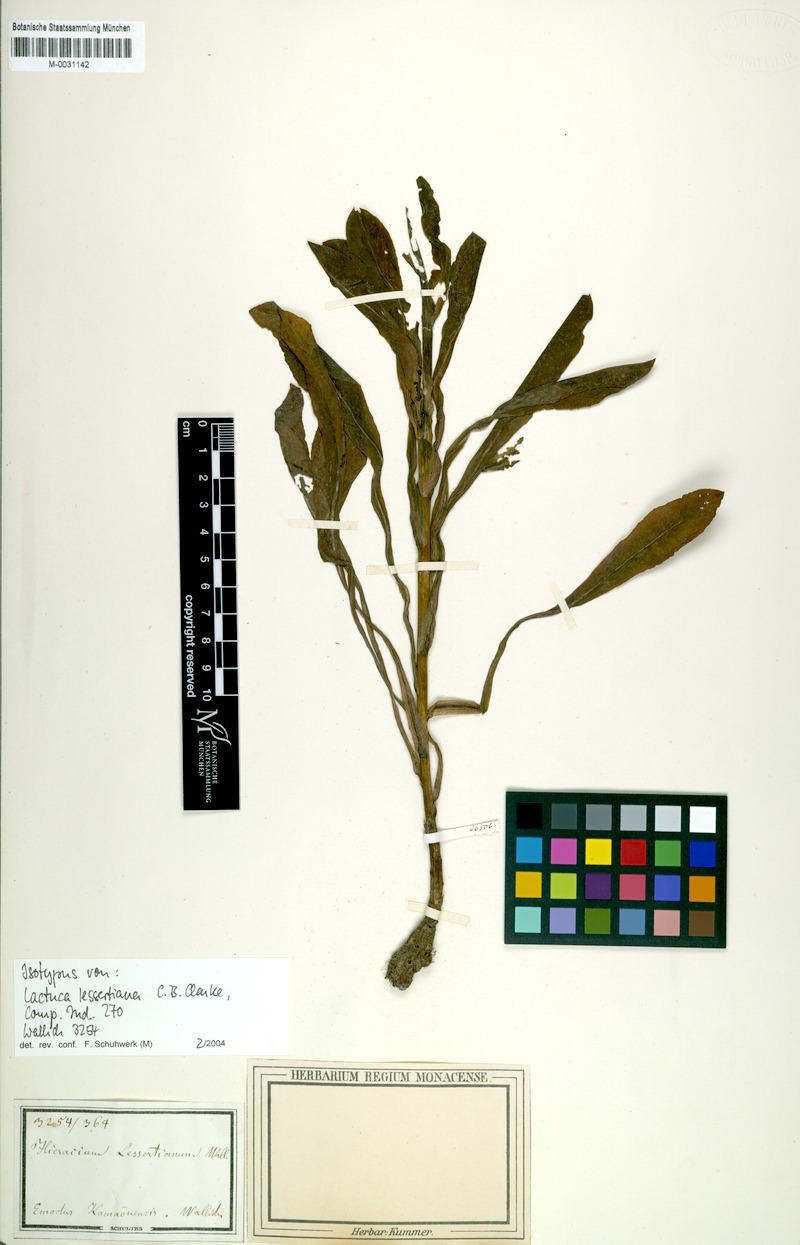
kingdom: Plantae
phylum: Tracheophyta
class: Magnoliopsida
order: Asterales
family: Asteraceae
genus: Melanoseris
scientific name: Melanoseris lessertiana
